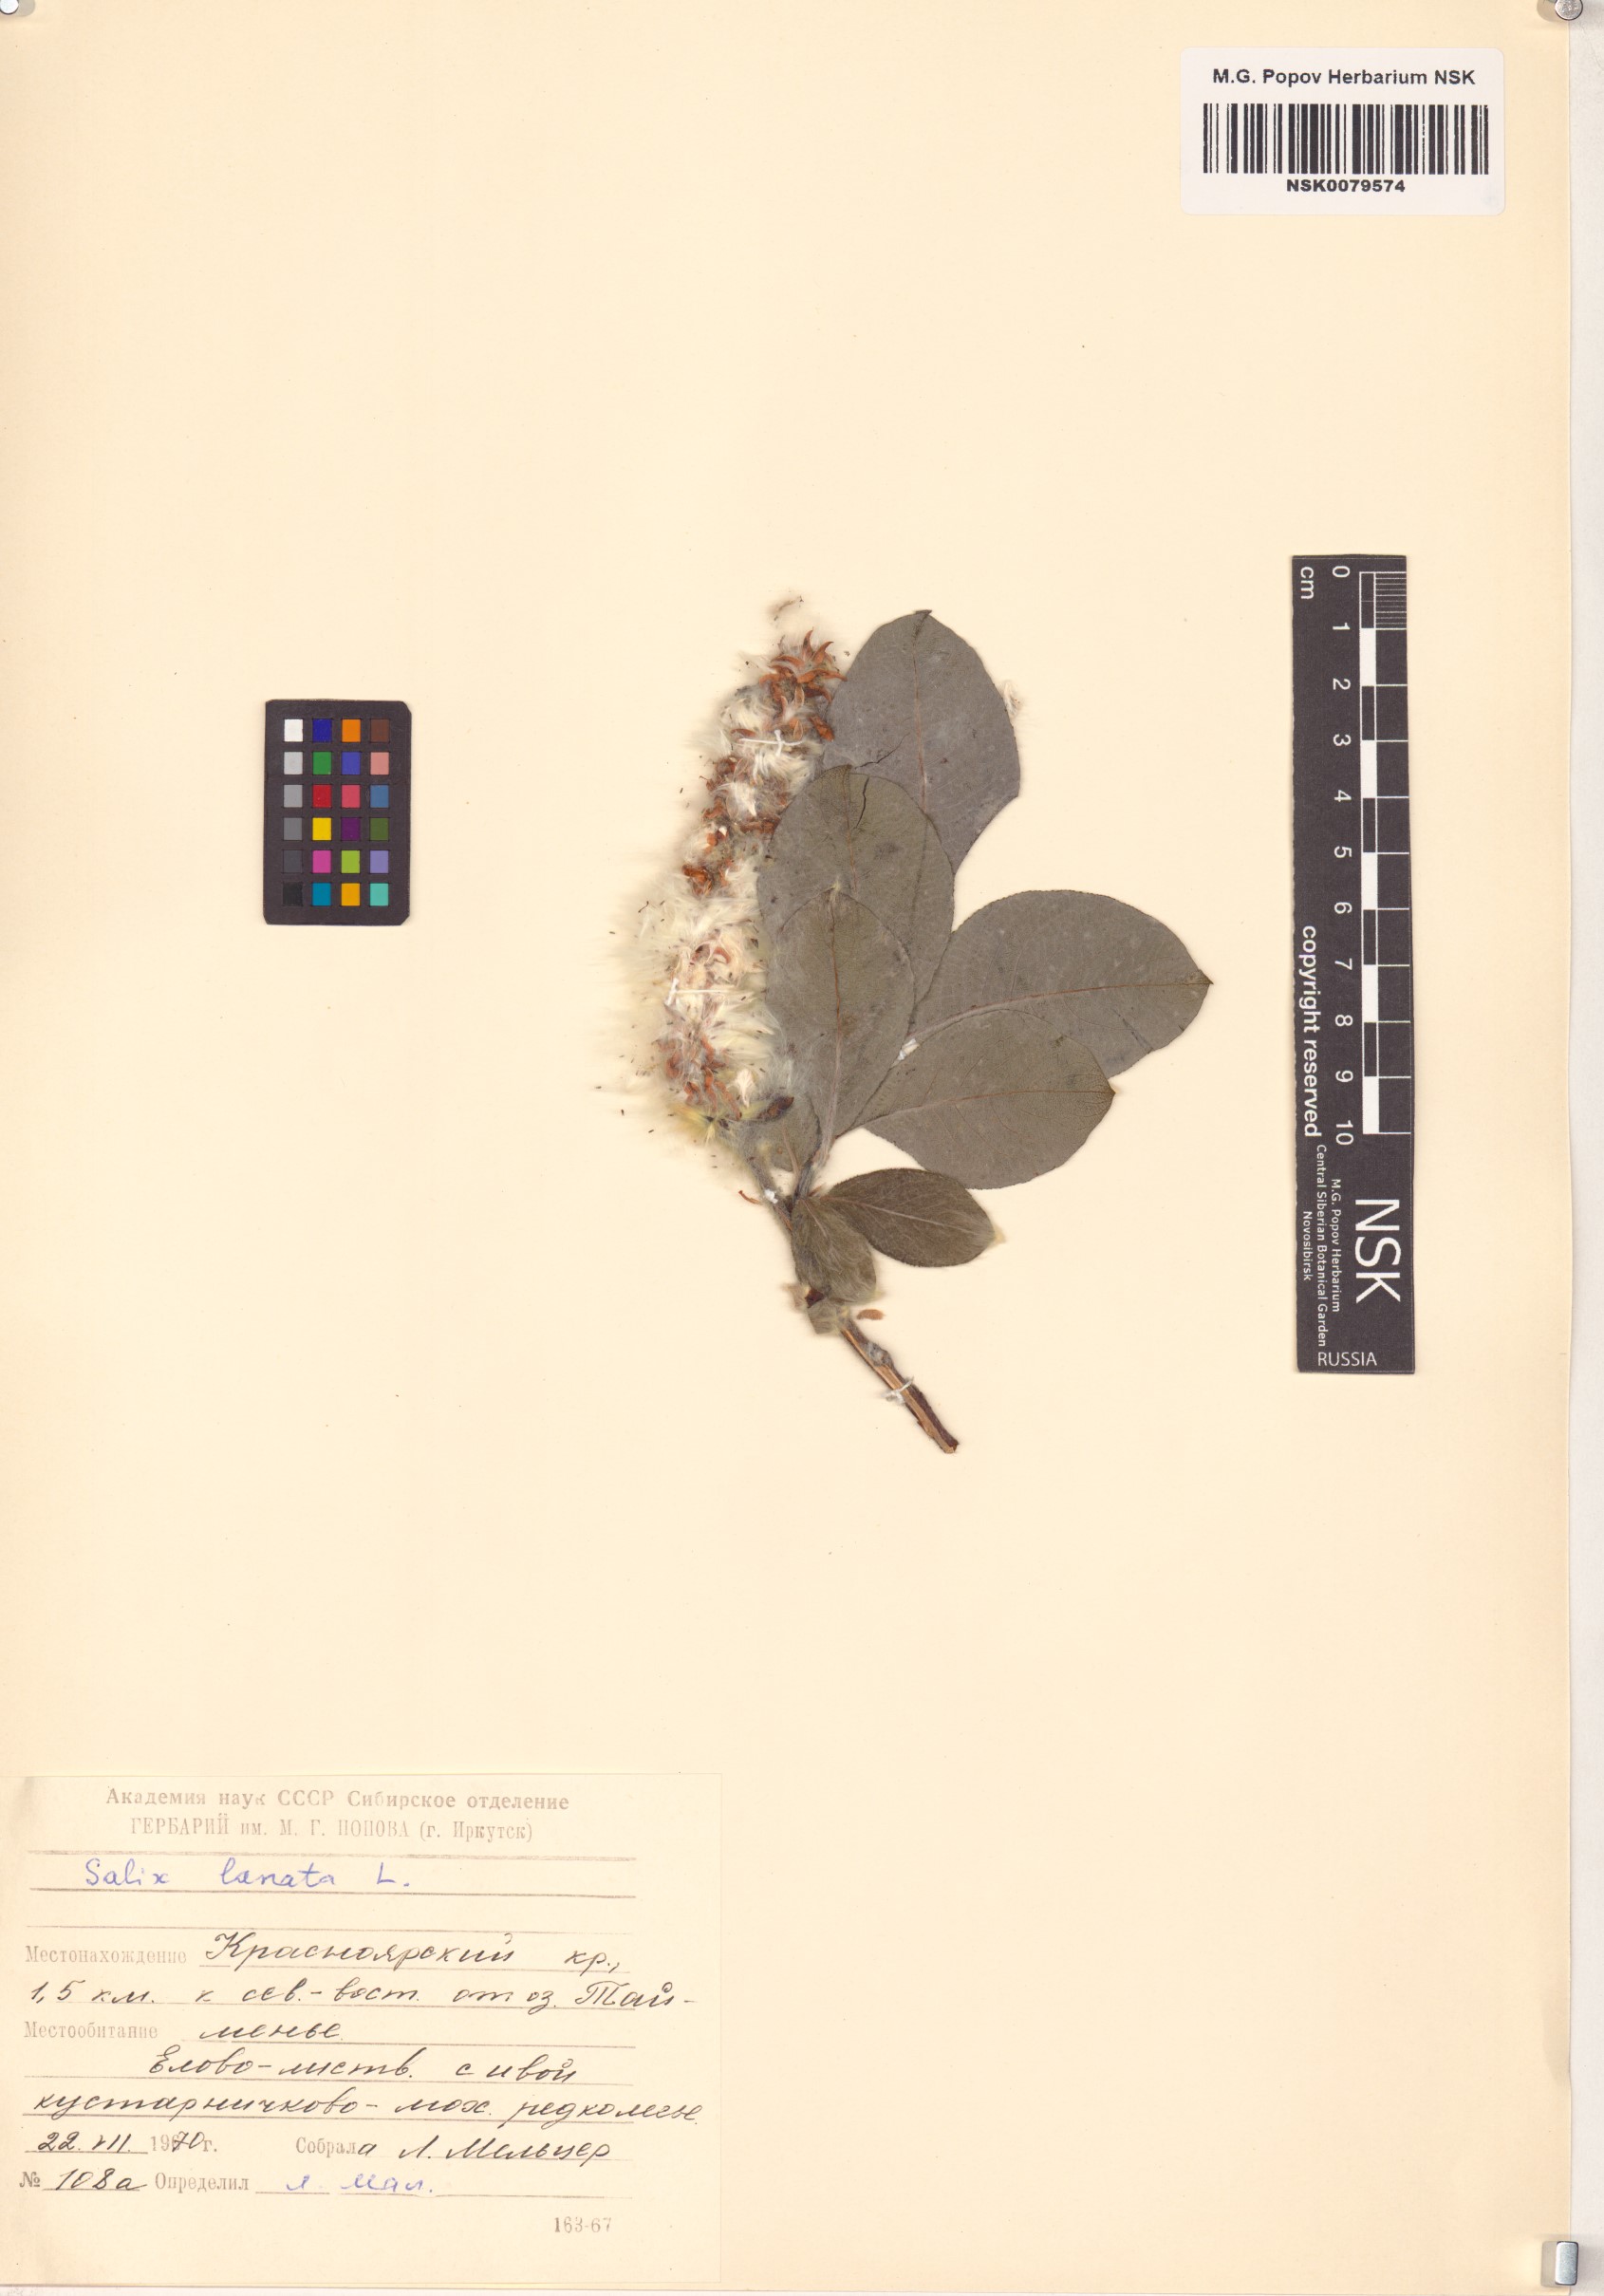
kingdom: Plantae
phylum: Tracheophyta
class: Magnoliopsida
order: Malpighiales
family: Salicaceae
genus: Salix
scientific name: Salix lanata
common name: Woolly willow
